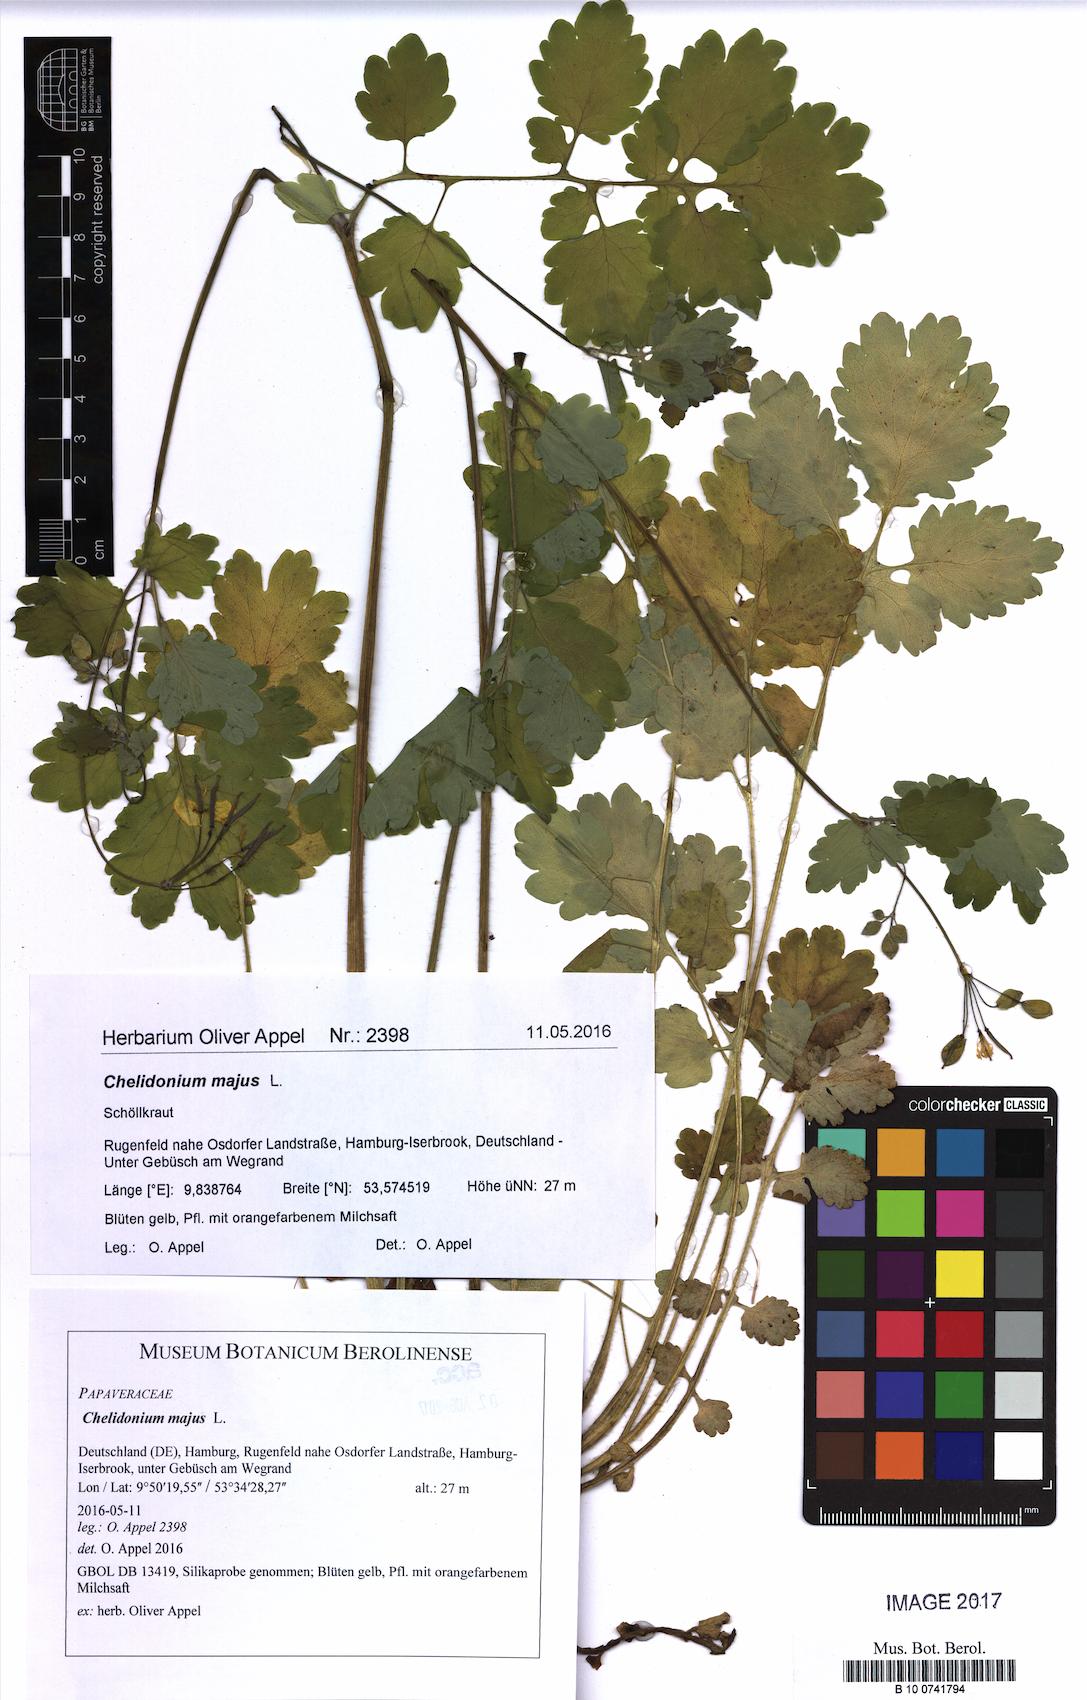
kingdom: Plantae
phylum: Tracheophyta
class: Magnoliopsida
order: Ranunculales
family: Papaveraceae
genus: Chelidonium
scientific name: Chelidonium majus
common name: Greater celandine
